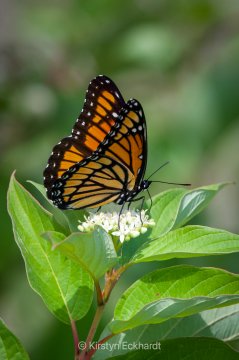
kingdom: Animalia
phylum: Arthropoda
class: Insecta
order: Lepidoptera
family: Nymphalidae
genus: Limenitis
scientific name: Limenitis archippus
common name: Viceroy
